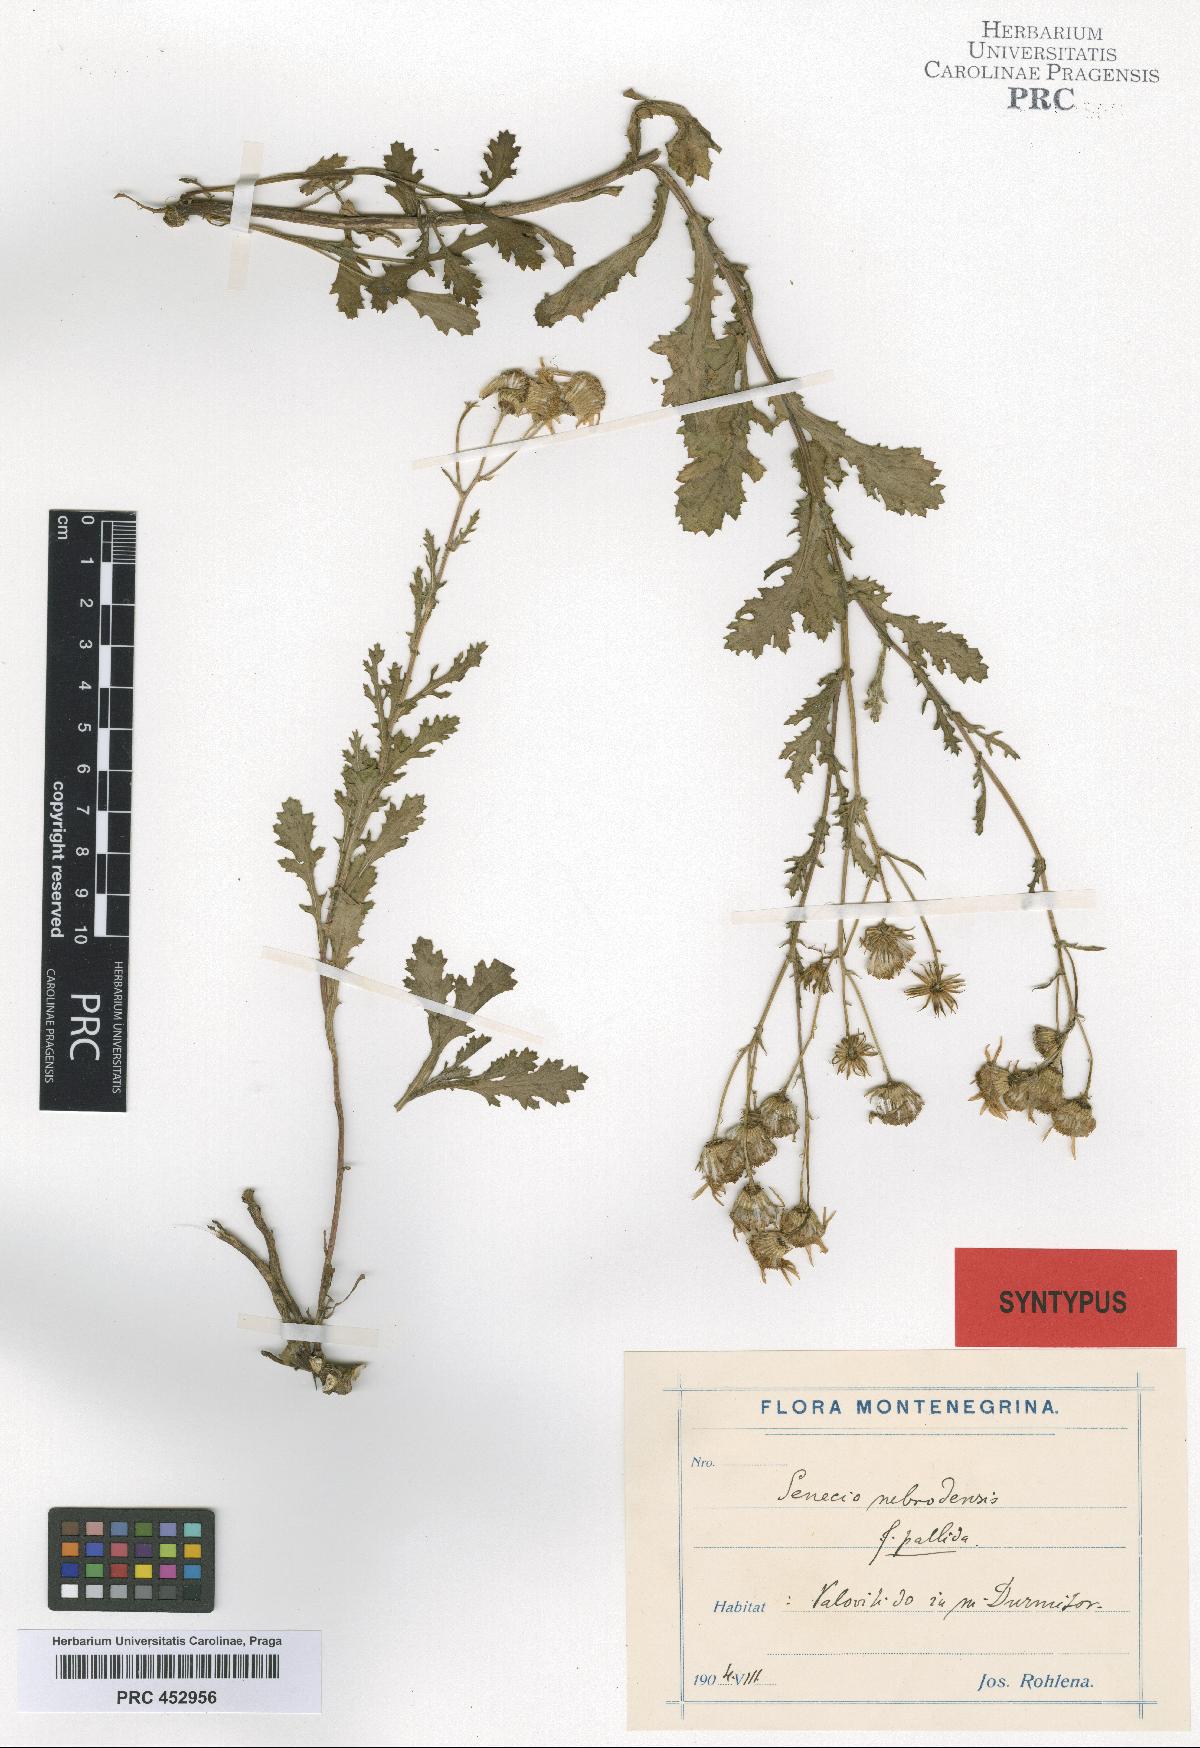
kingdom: Plantae
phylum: Tracheophyta
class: Magnoliopsida
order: Asterales
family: Asteraceae
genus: Senecio
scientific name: Senecio
